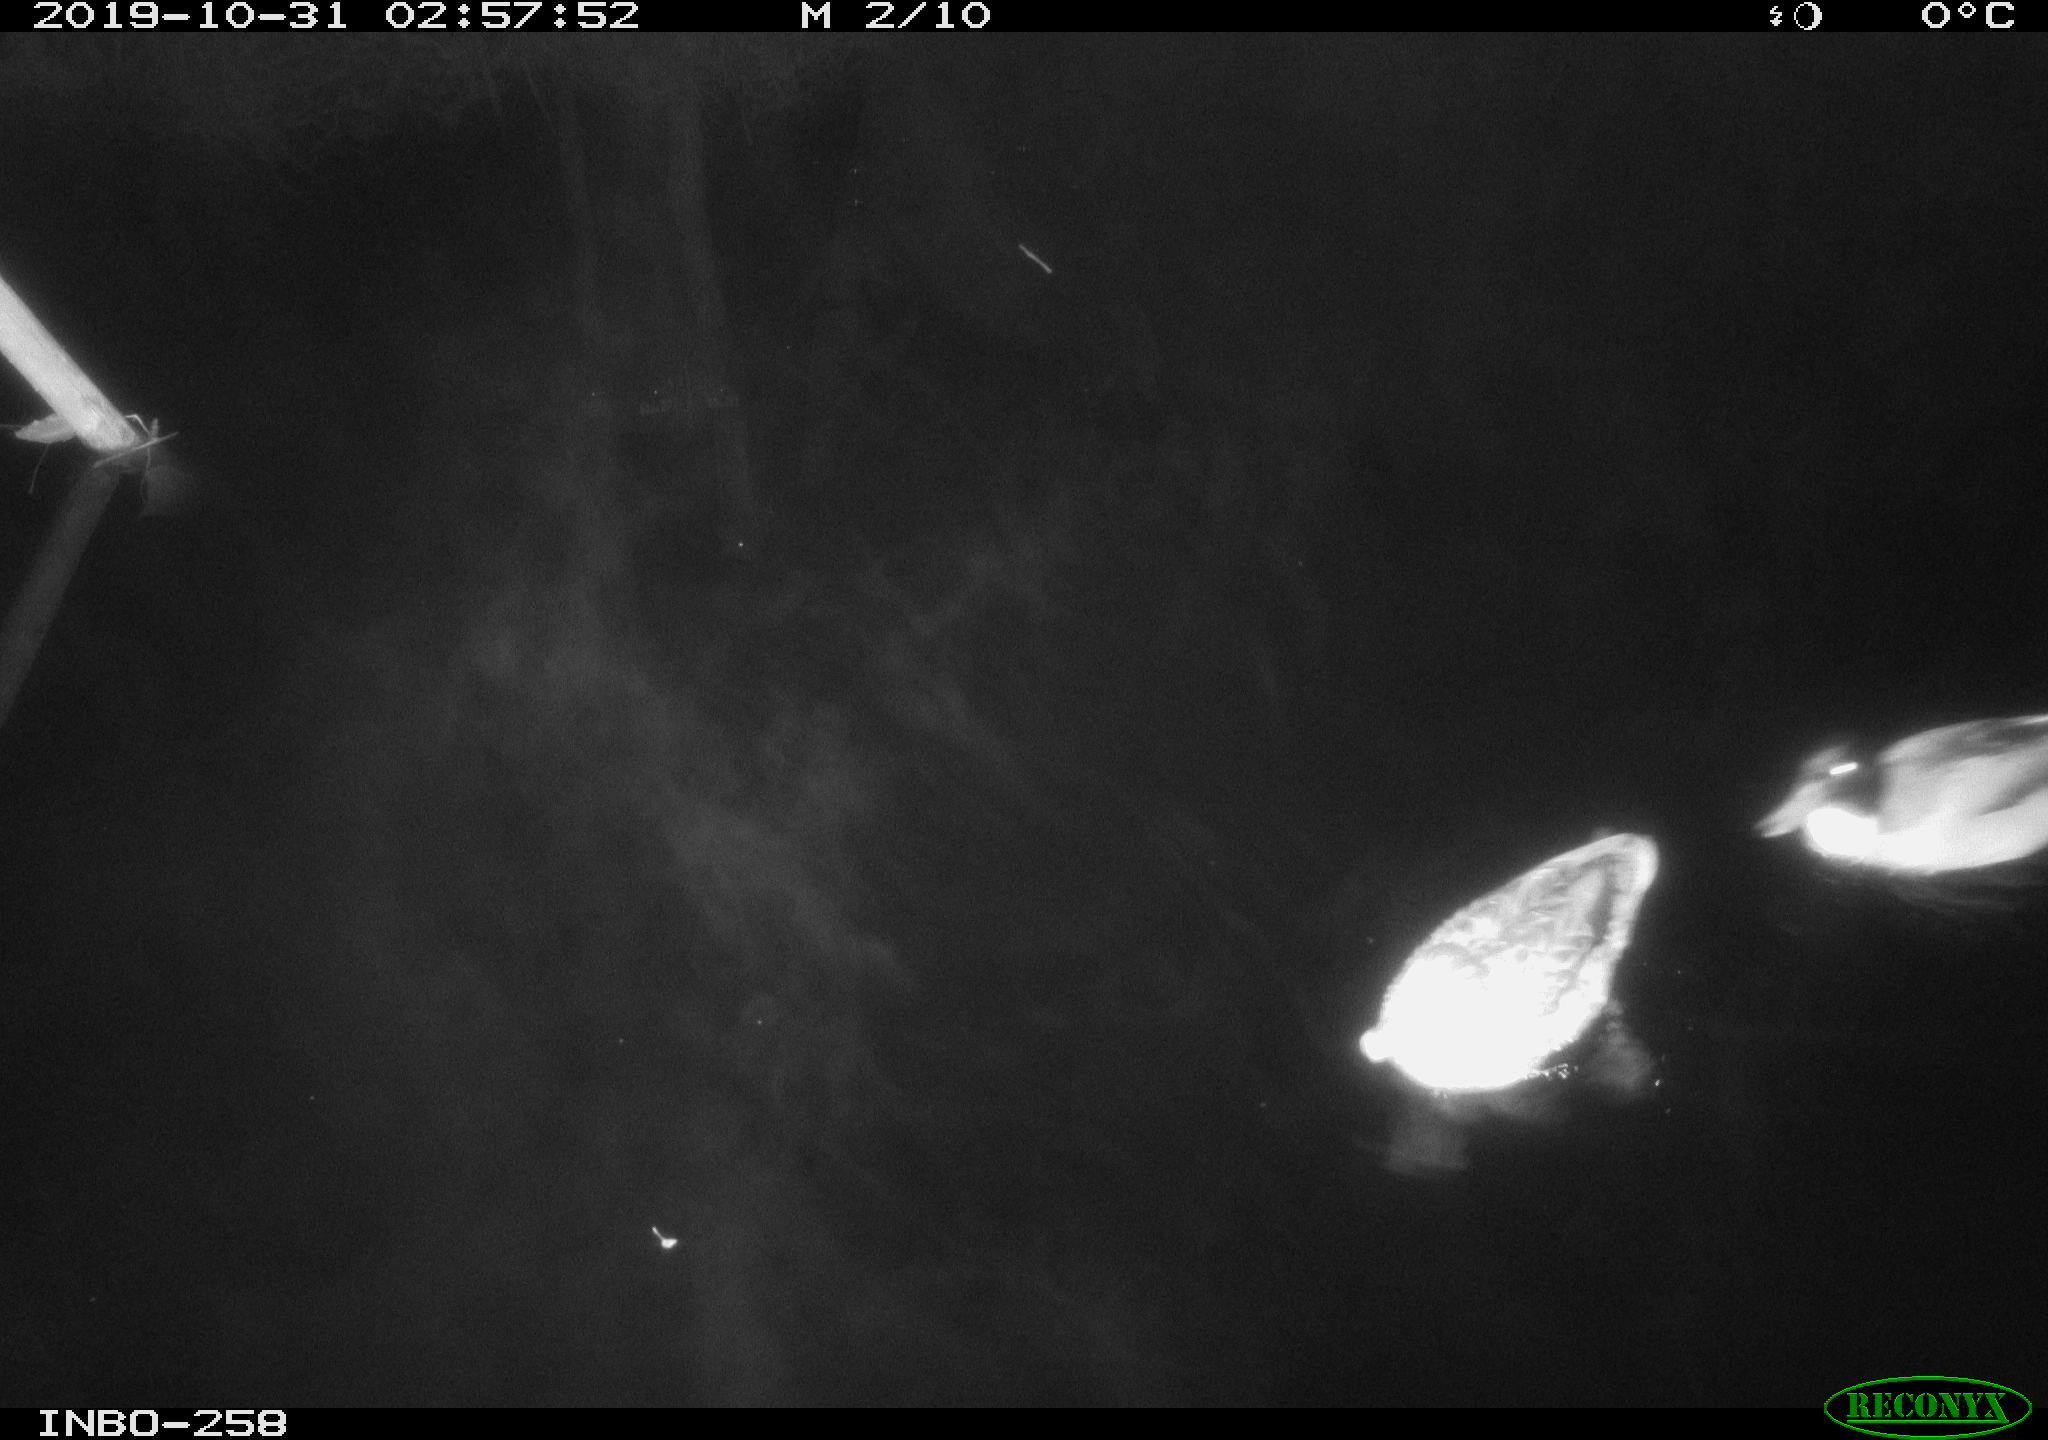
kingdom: Animalia
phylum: Chordata
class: Aves
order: Anseriformes
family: Anatidae
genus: Anas
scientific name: Anas platyrhynchos
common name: Mallard
